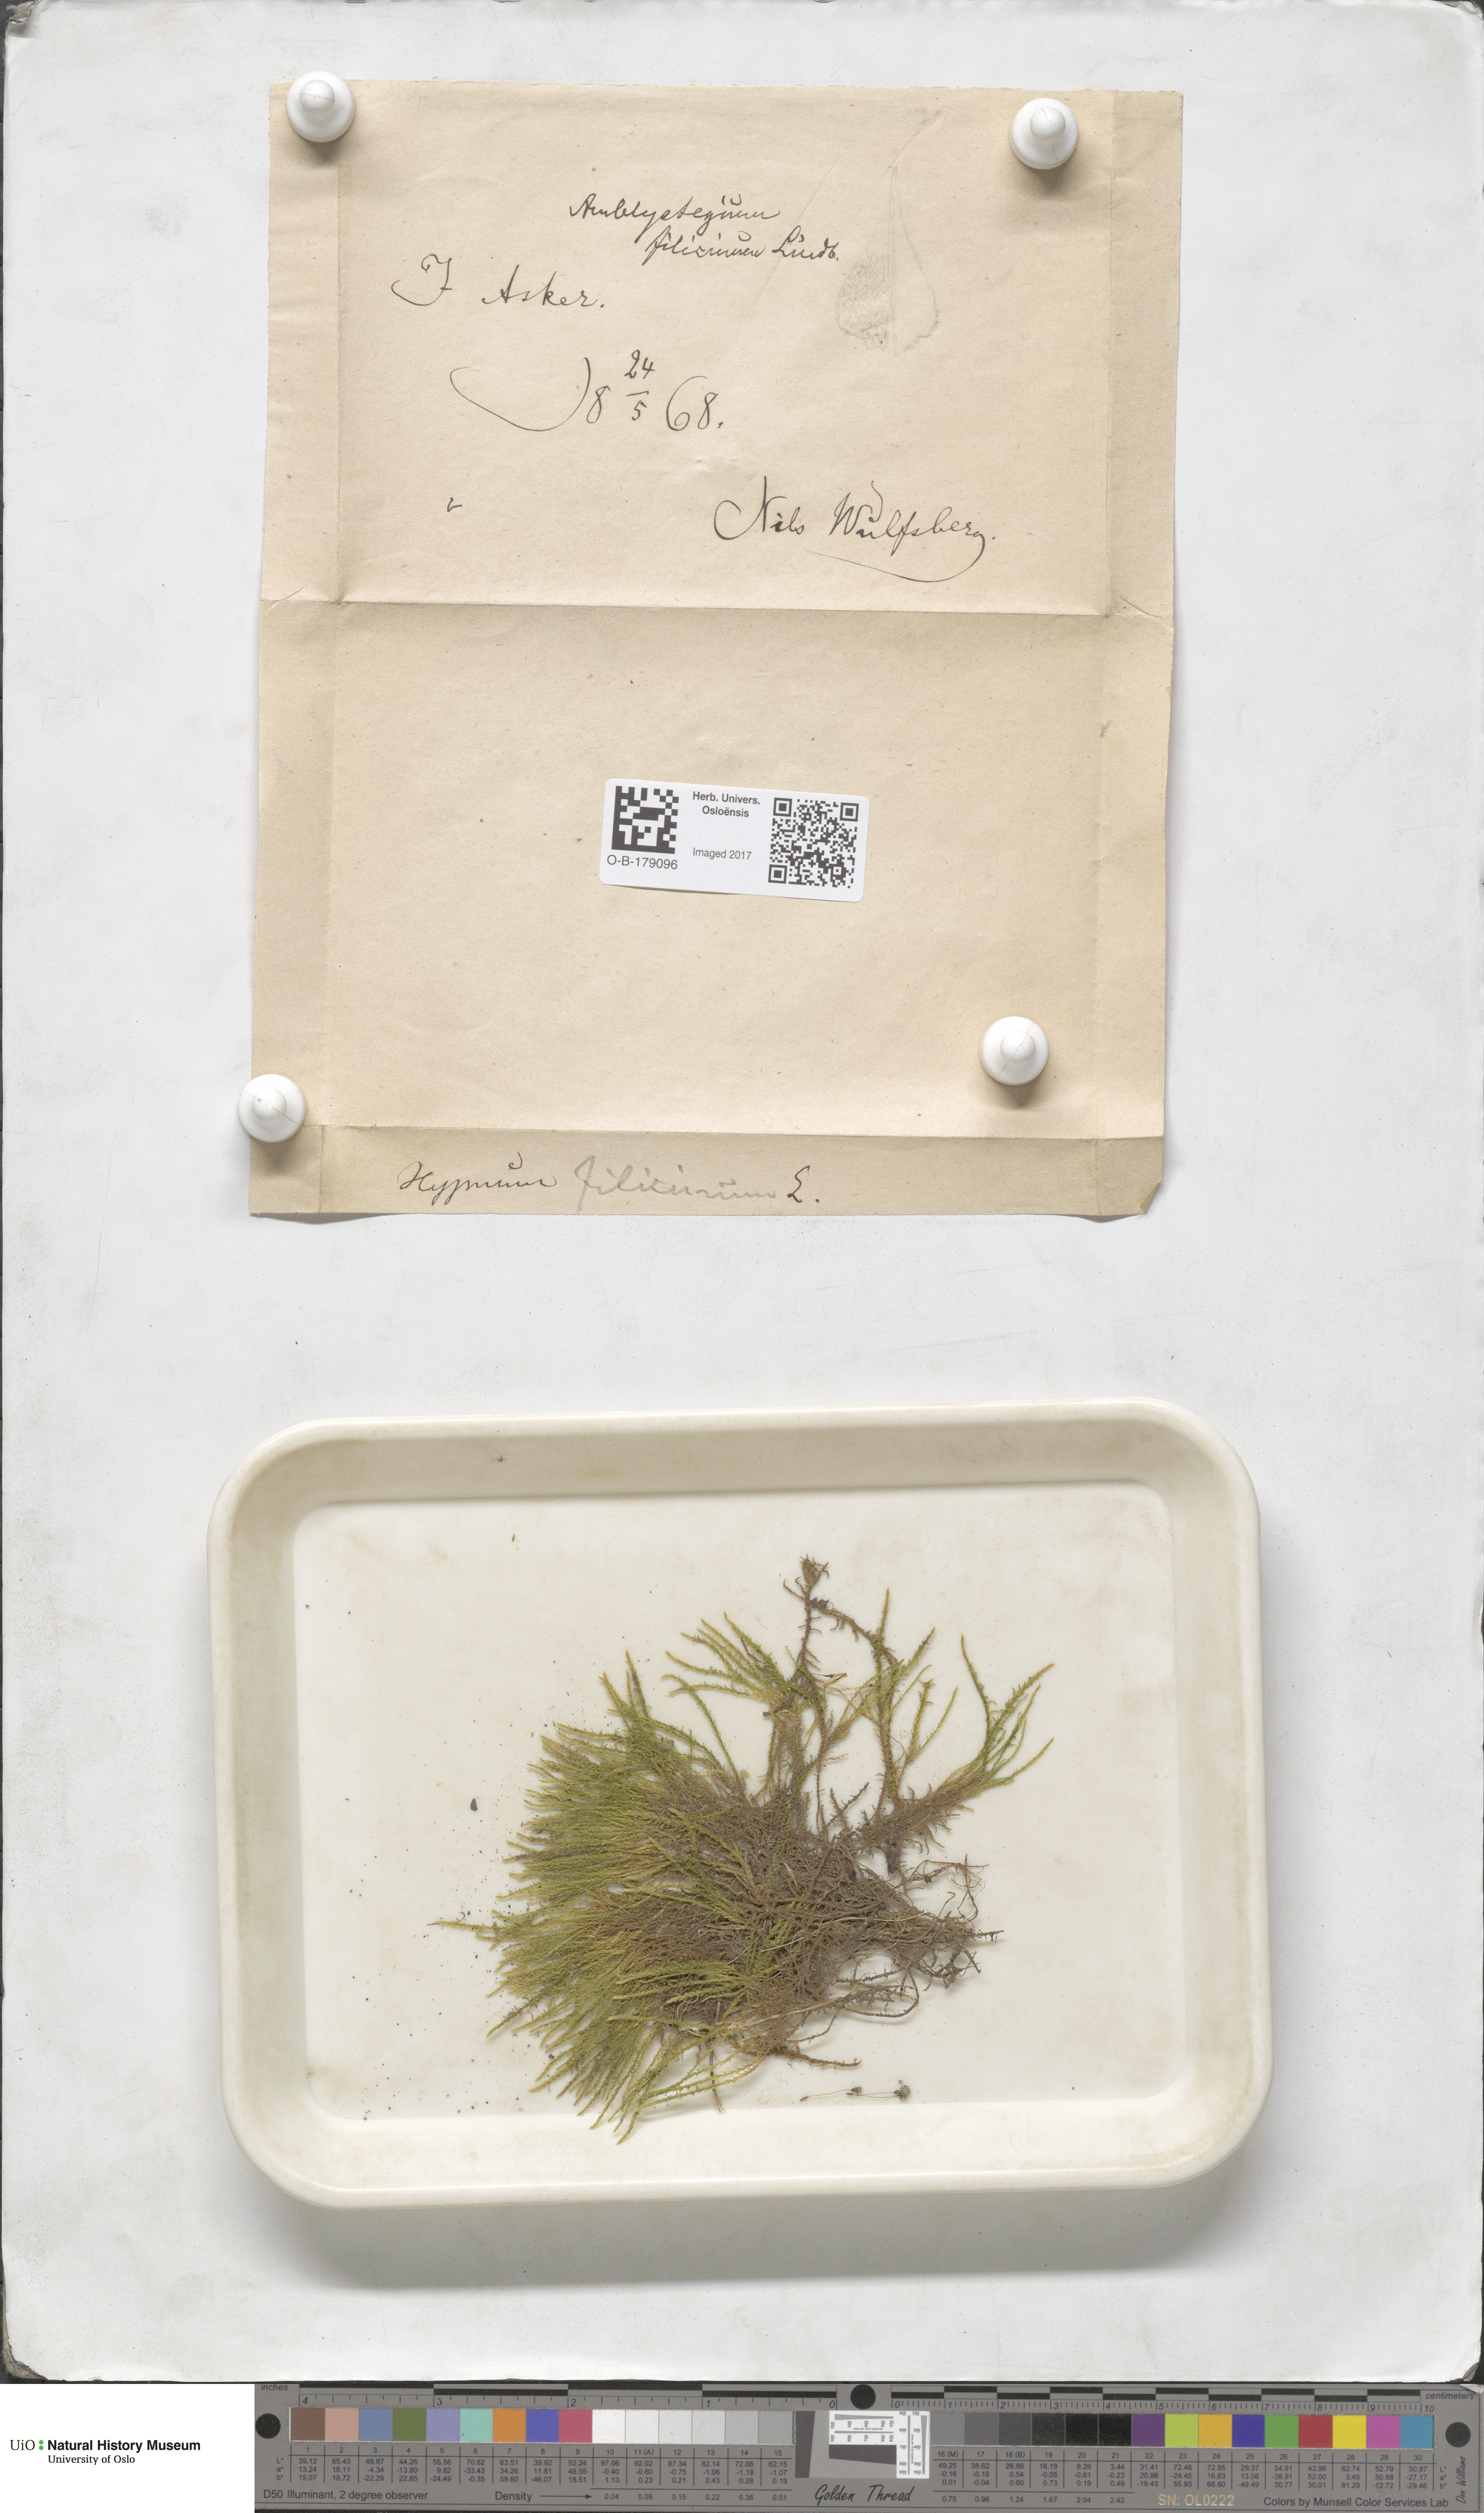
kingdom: Plantae
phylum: Bryophyta
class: Bryopsida
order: Hypnales
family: Amblystegiaceae
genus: Cratoneuron
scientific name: Cratoneuron filicinum
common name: Fern-leaved hook moss
